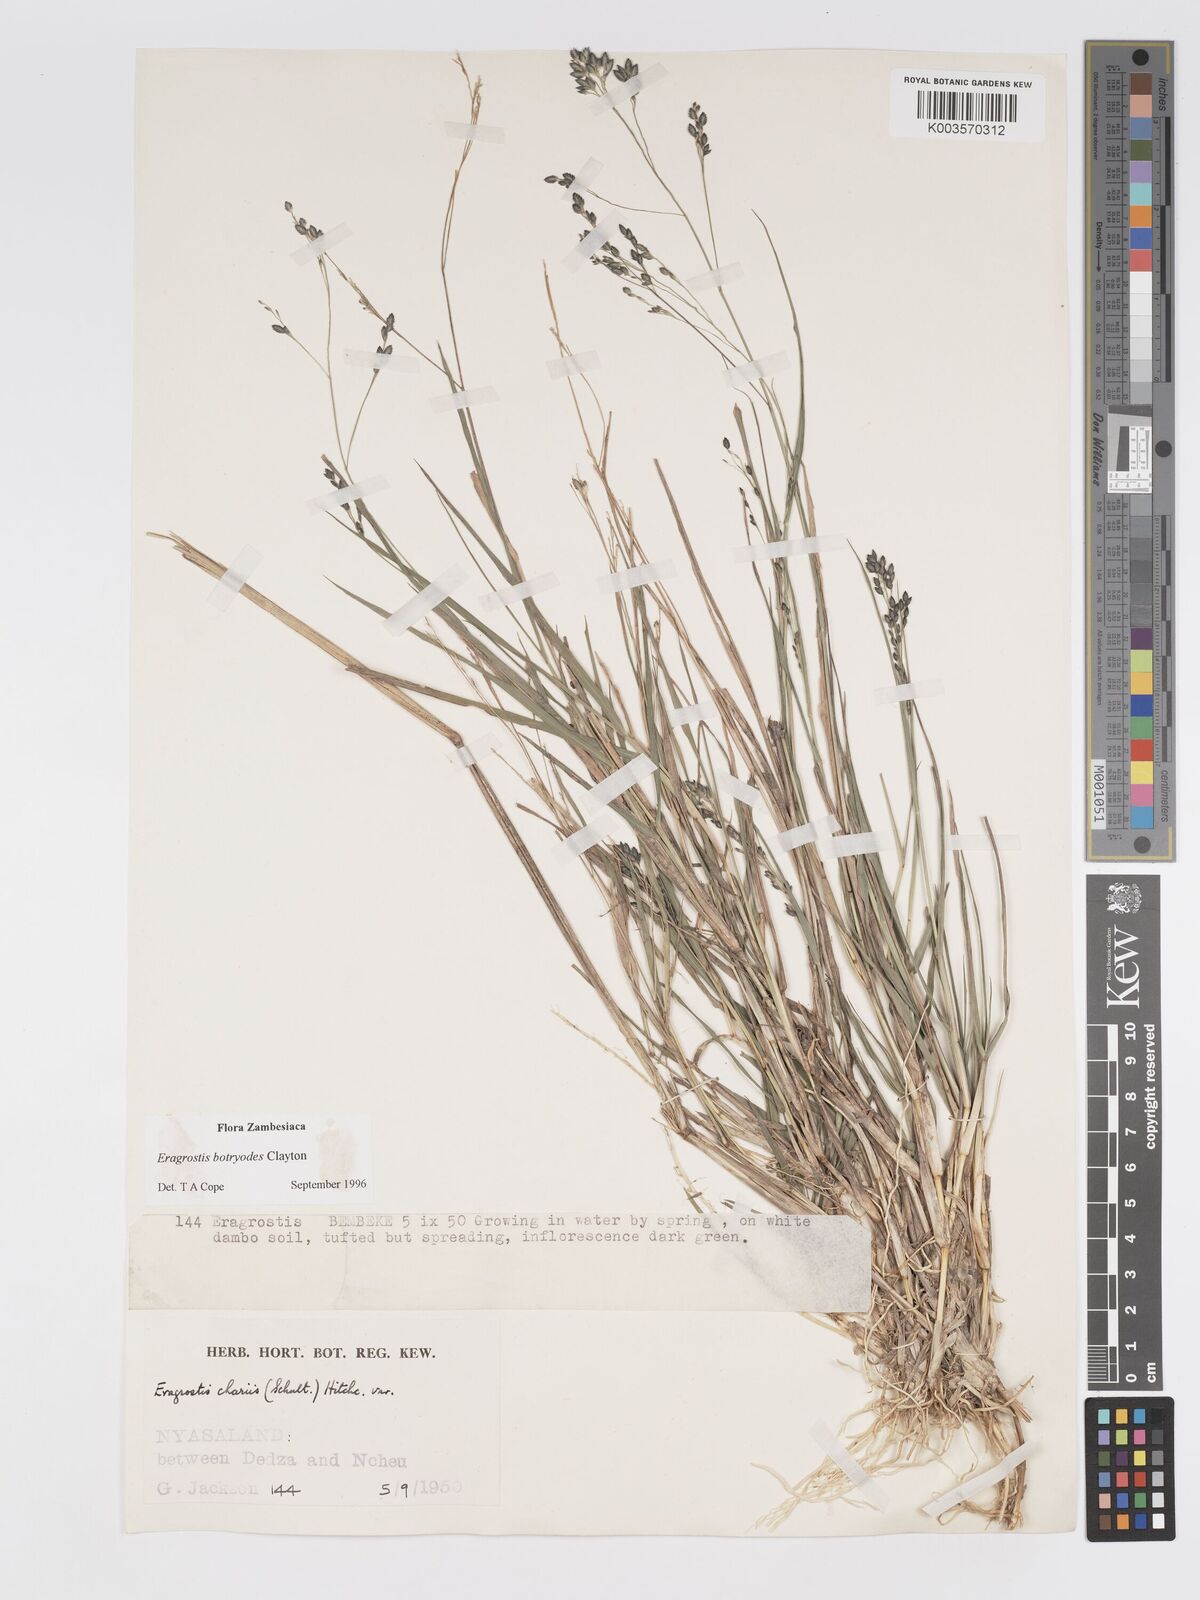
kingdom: Plantae
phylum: Tracheophyta
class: Liliopsida
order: Poales
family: Poaceae
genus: Eragrostis
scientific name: Eragrostis botryodes
